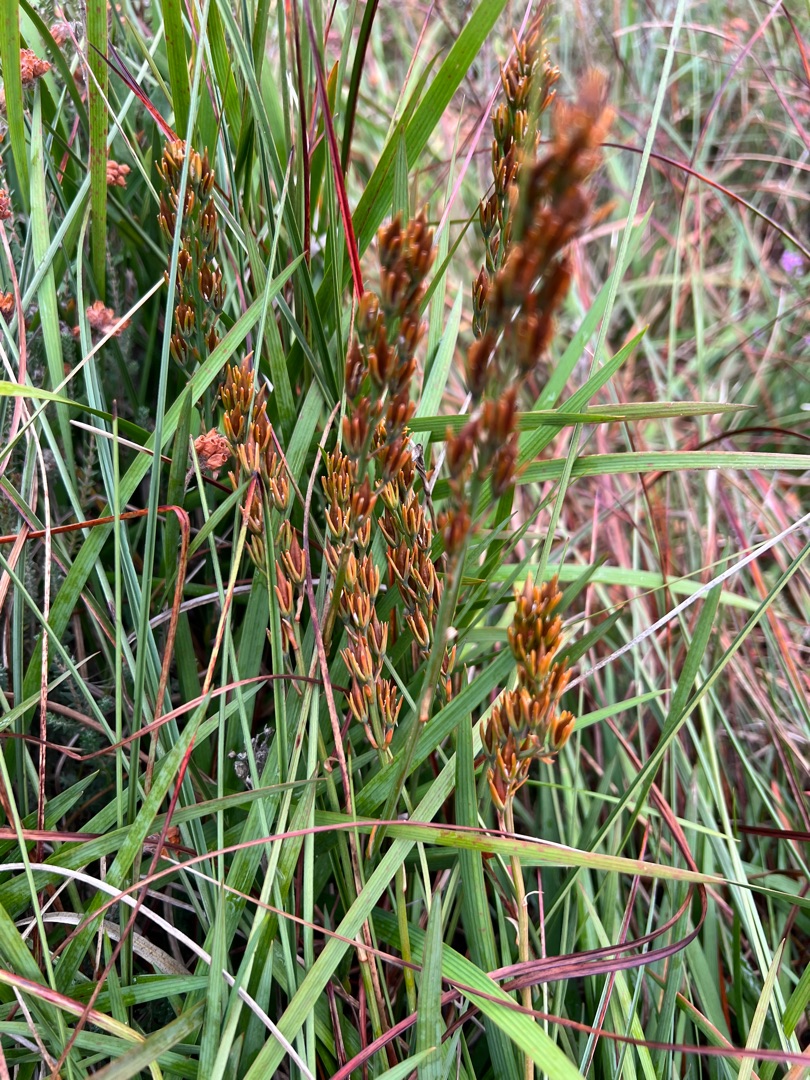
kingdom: Plantae
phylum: Tracheophyta
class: Liliopsida
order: Dioscoreales
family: Nartheciaceae
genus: Narthecium
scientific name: Narthecium ossifragum
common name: Benbræk
